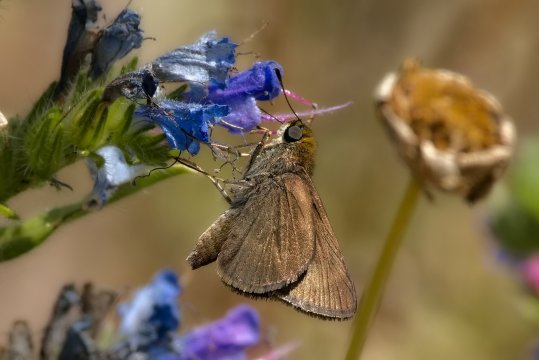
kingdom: Animalia
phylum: Arthropoda
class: Insecta
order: Lepidoptera
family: Hesperiidae
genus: Euphyes
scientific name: Euphyes vestris
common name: Dun Skipper
